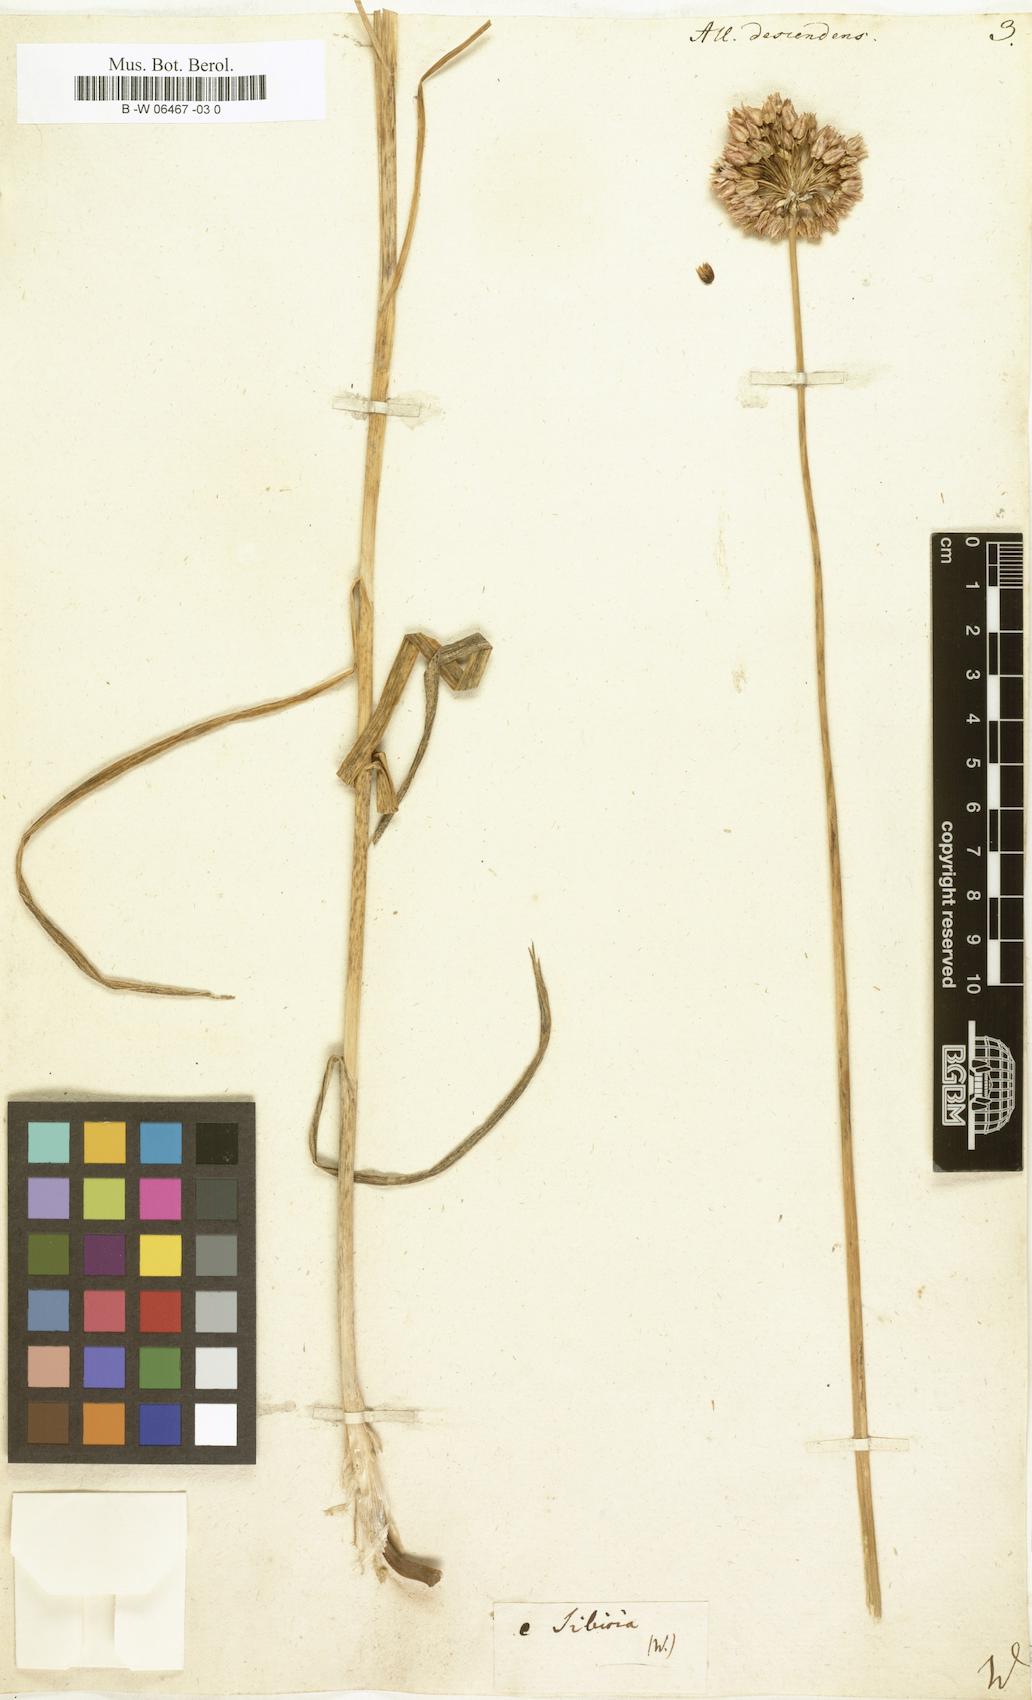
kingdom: Plantae
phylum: Tracheophyta
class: Liliopsida
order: Asparagales
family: Amaryllidaceae
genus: Allium
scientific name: Allium descendens
